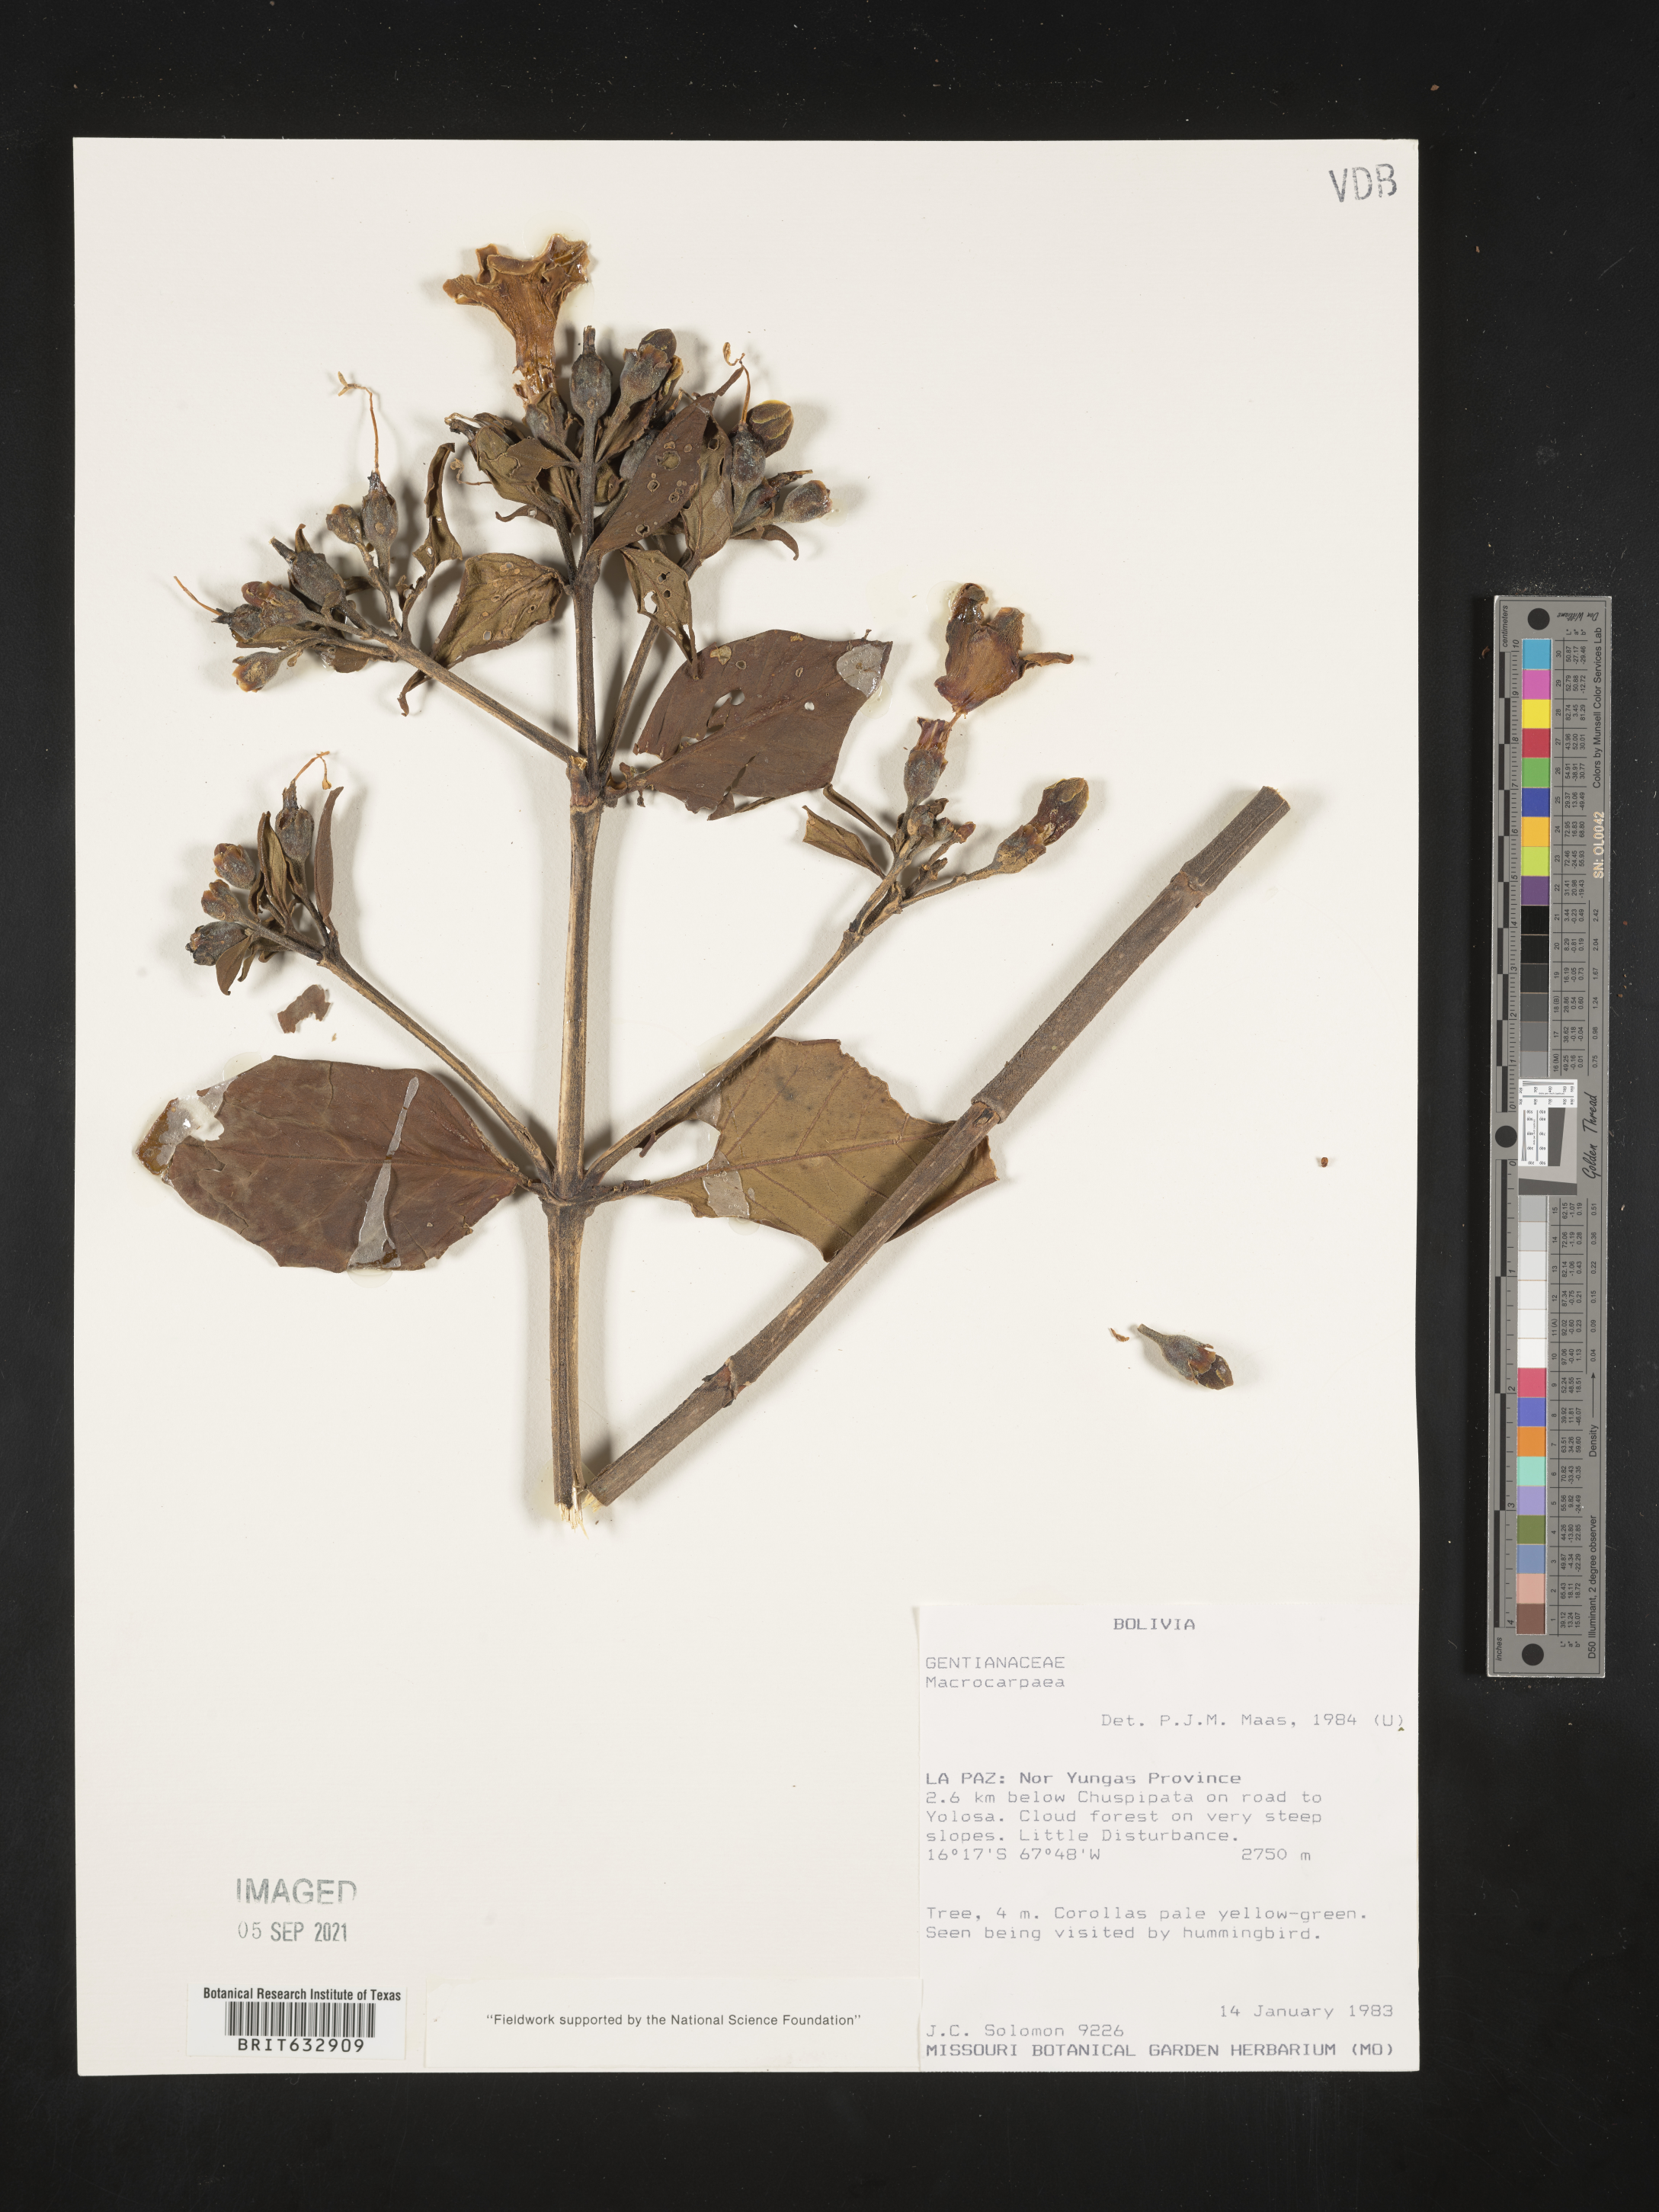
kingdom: Plantae
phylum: Tracheophyta
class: Magnoliopsida
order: Gentianales
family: Gentianaceae
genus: Macrocarpaea
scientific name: Macrocarpaea
